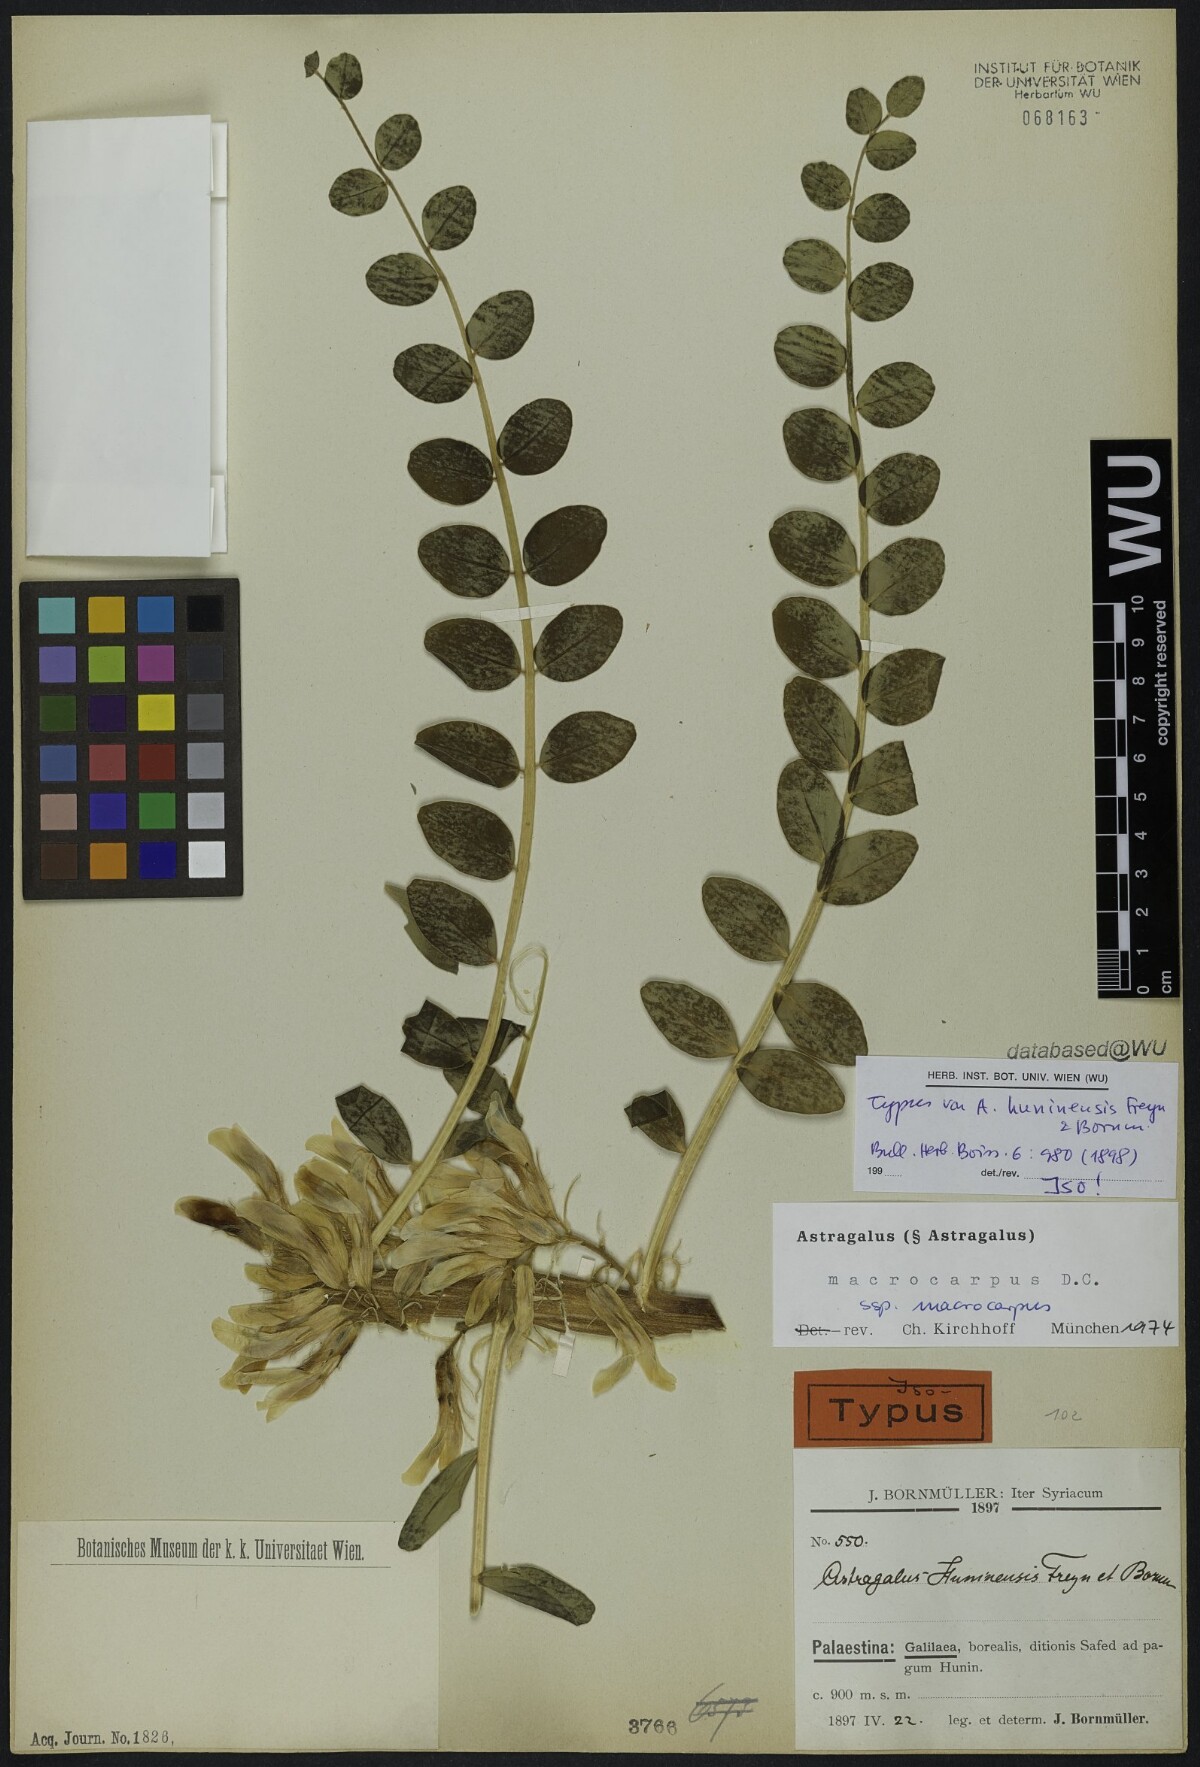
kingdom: Plantae
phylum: Tracheophyta
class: Magnoliopsida
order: Fabales
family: Fabaceae
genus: Astragalus
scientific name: Astragalus macrocarpus
